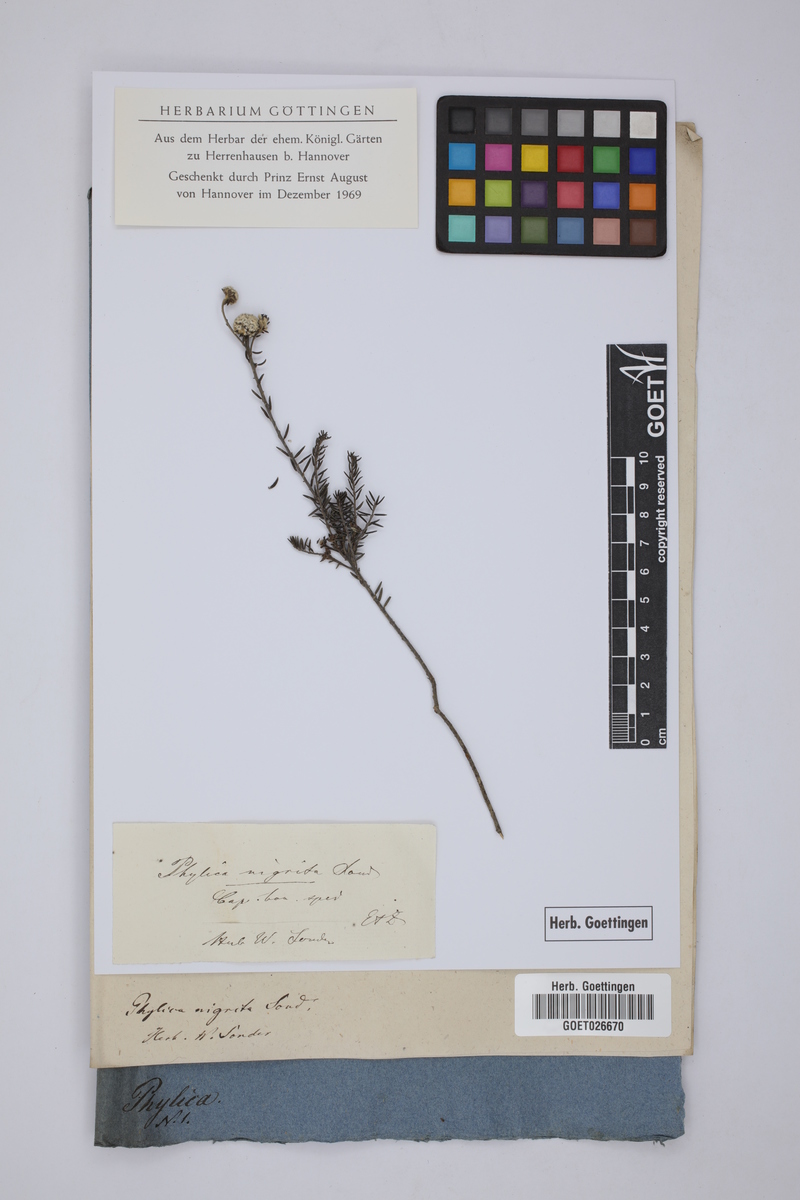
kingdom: Plantae
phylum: Tracheophyta
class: Magnoliopsida
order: Rosales
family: Rhamnaceae
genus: Phylica
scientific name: Phylica nigrita
